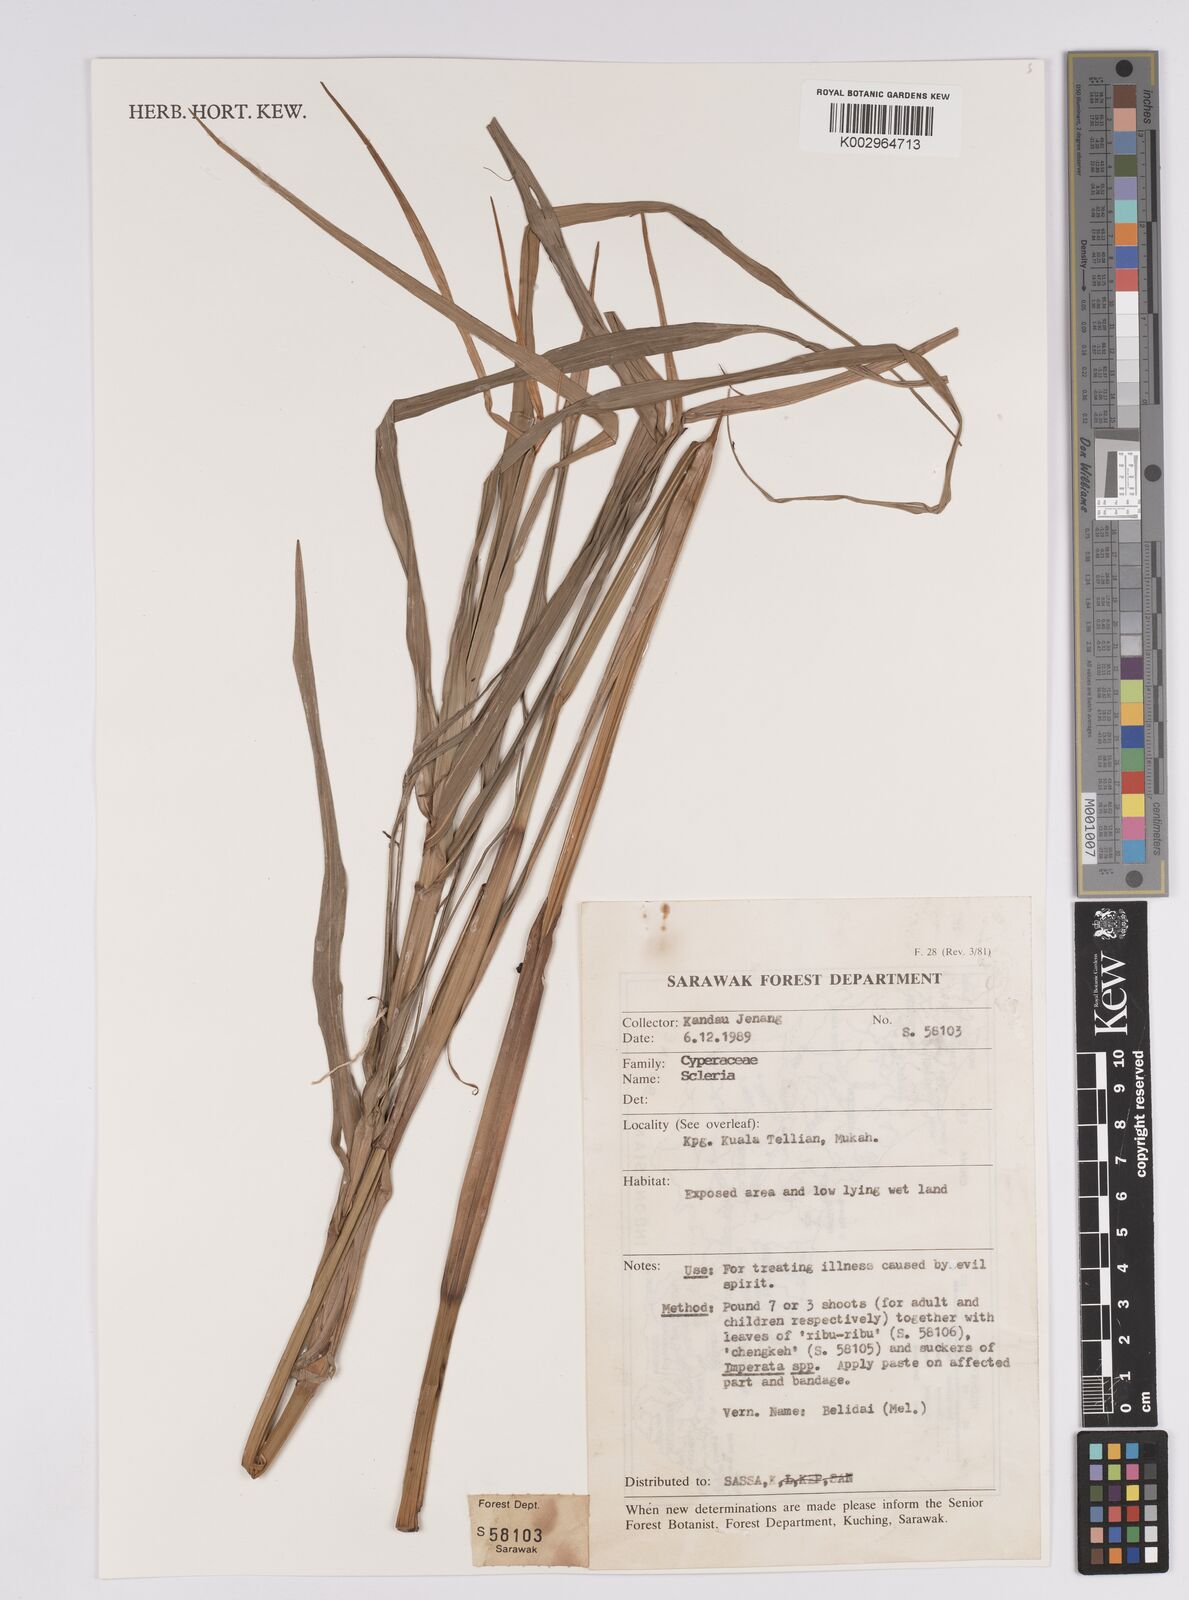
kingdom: Plantae
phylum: Tracheophyta
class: Liliopsida
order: Poales
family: Cyperaceae
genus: Scleria
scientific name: Scleria
